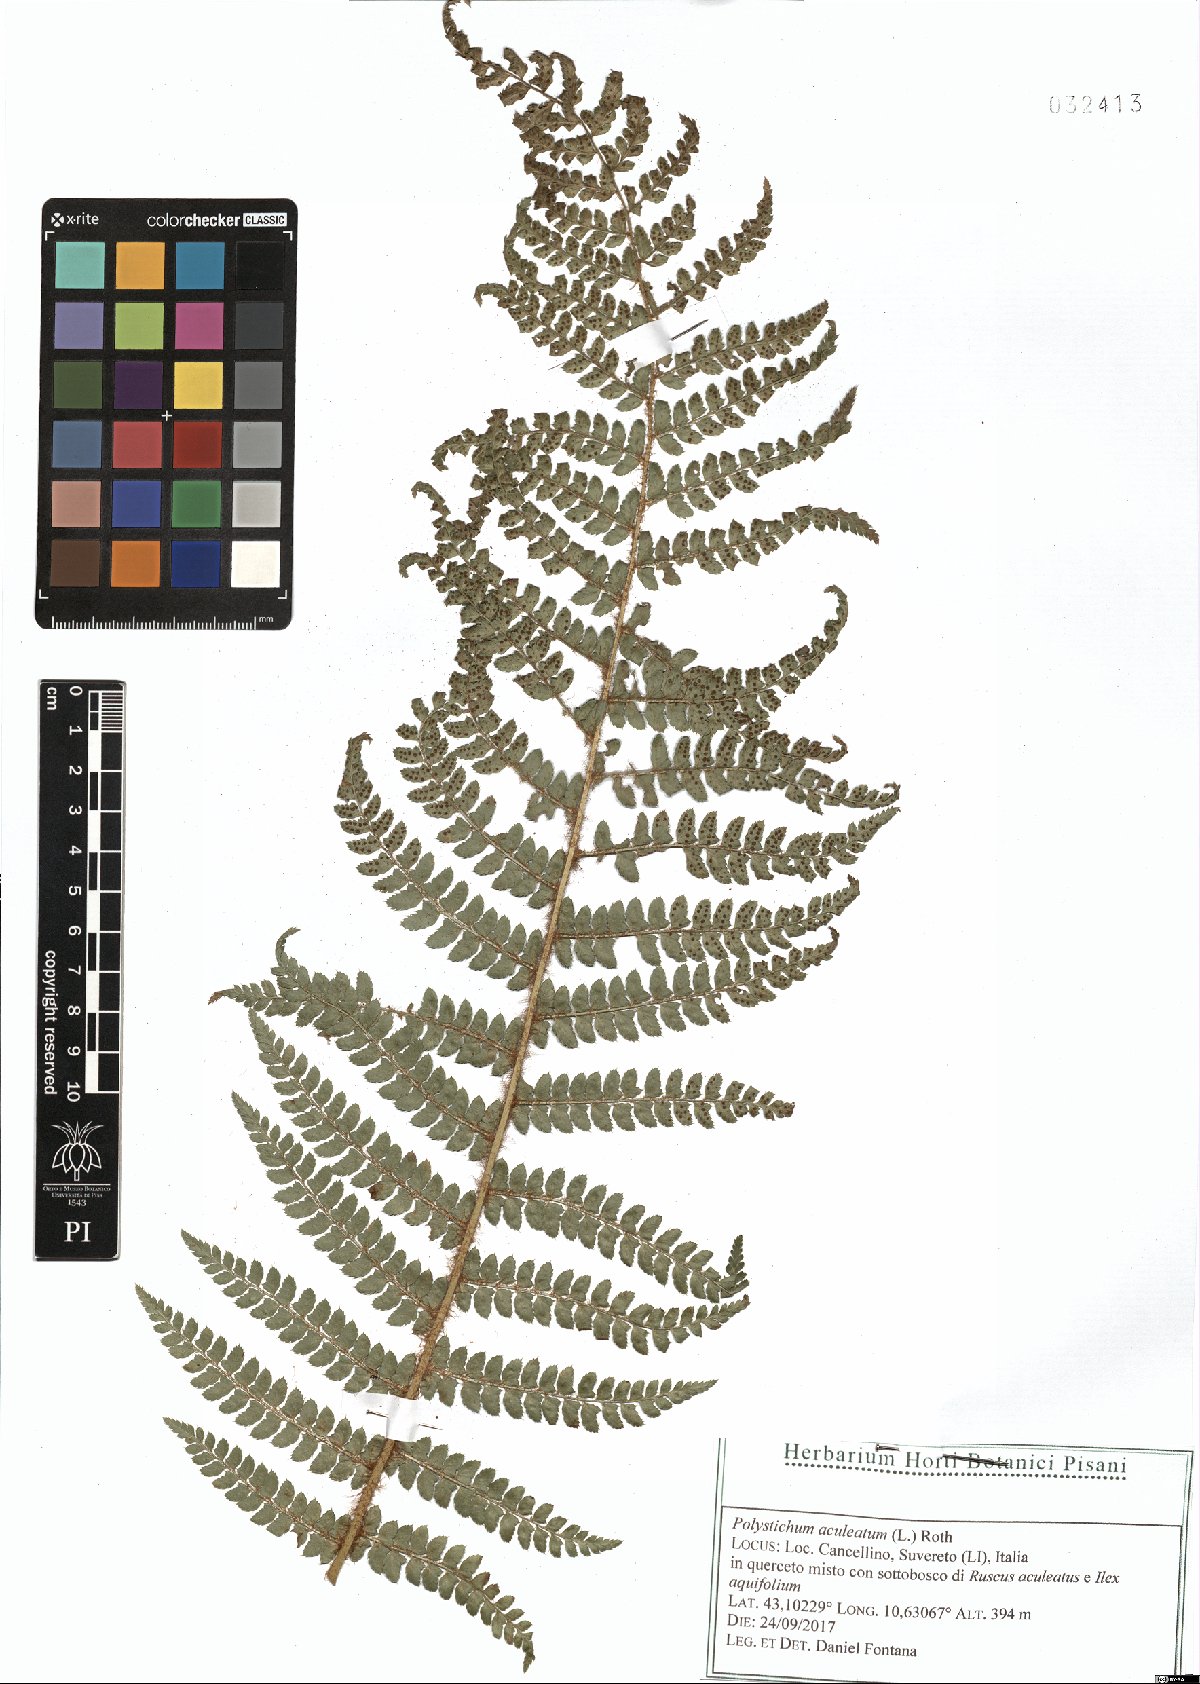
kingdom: Plantae
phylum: Tracheophyta
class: Polypodiopsida
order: Polypodiales
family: Dryopteridaceae
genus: Polystichum
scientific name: Polystichum aculeatum
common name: Hard shield-fern
